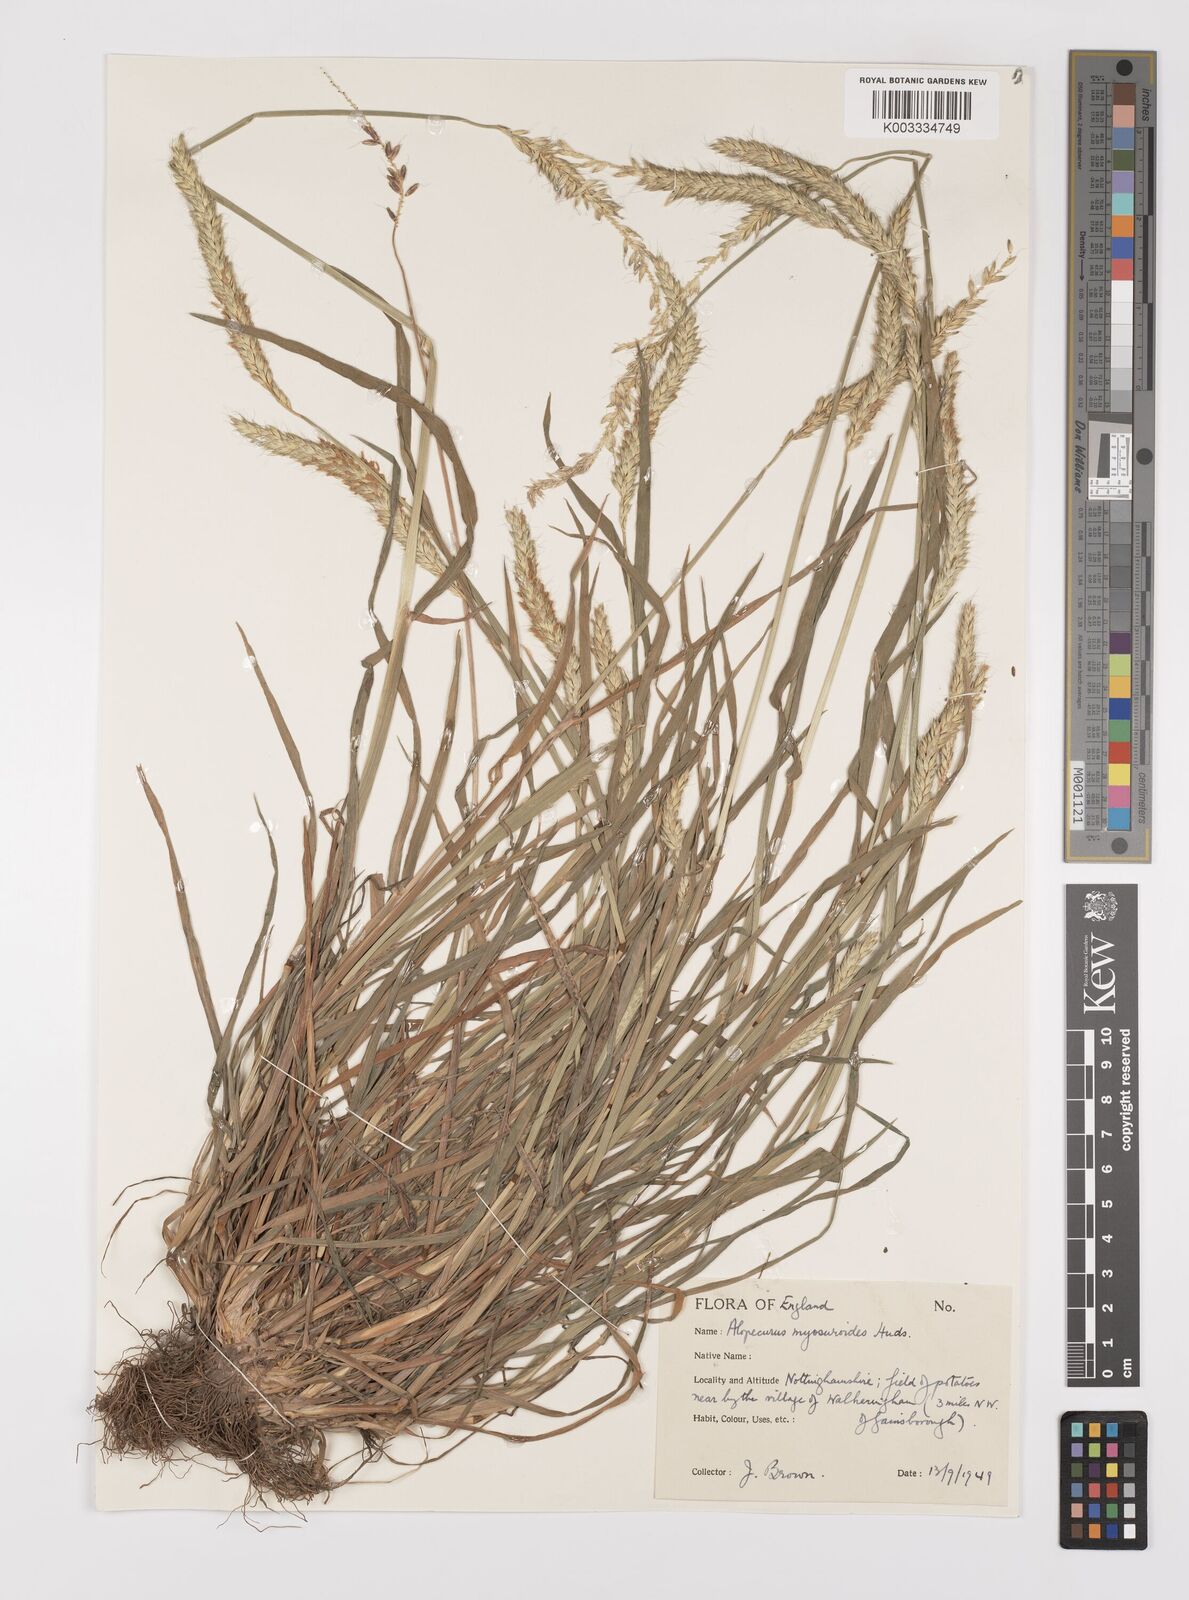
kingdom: Plantae
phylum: Tracheophyta
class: Liliopsida
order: Poales
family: Poaceae
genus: Alopecurus
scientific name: Alopecurus myosuroides
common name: Black-grass
